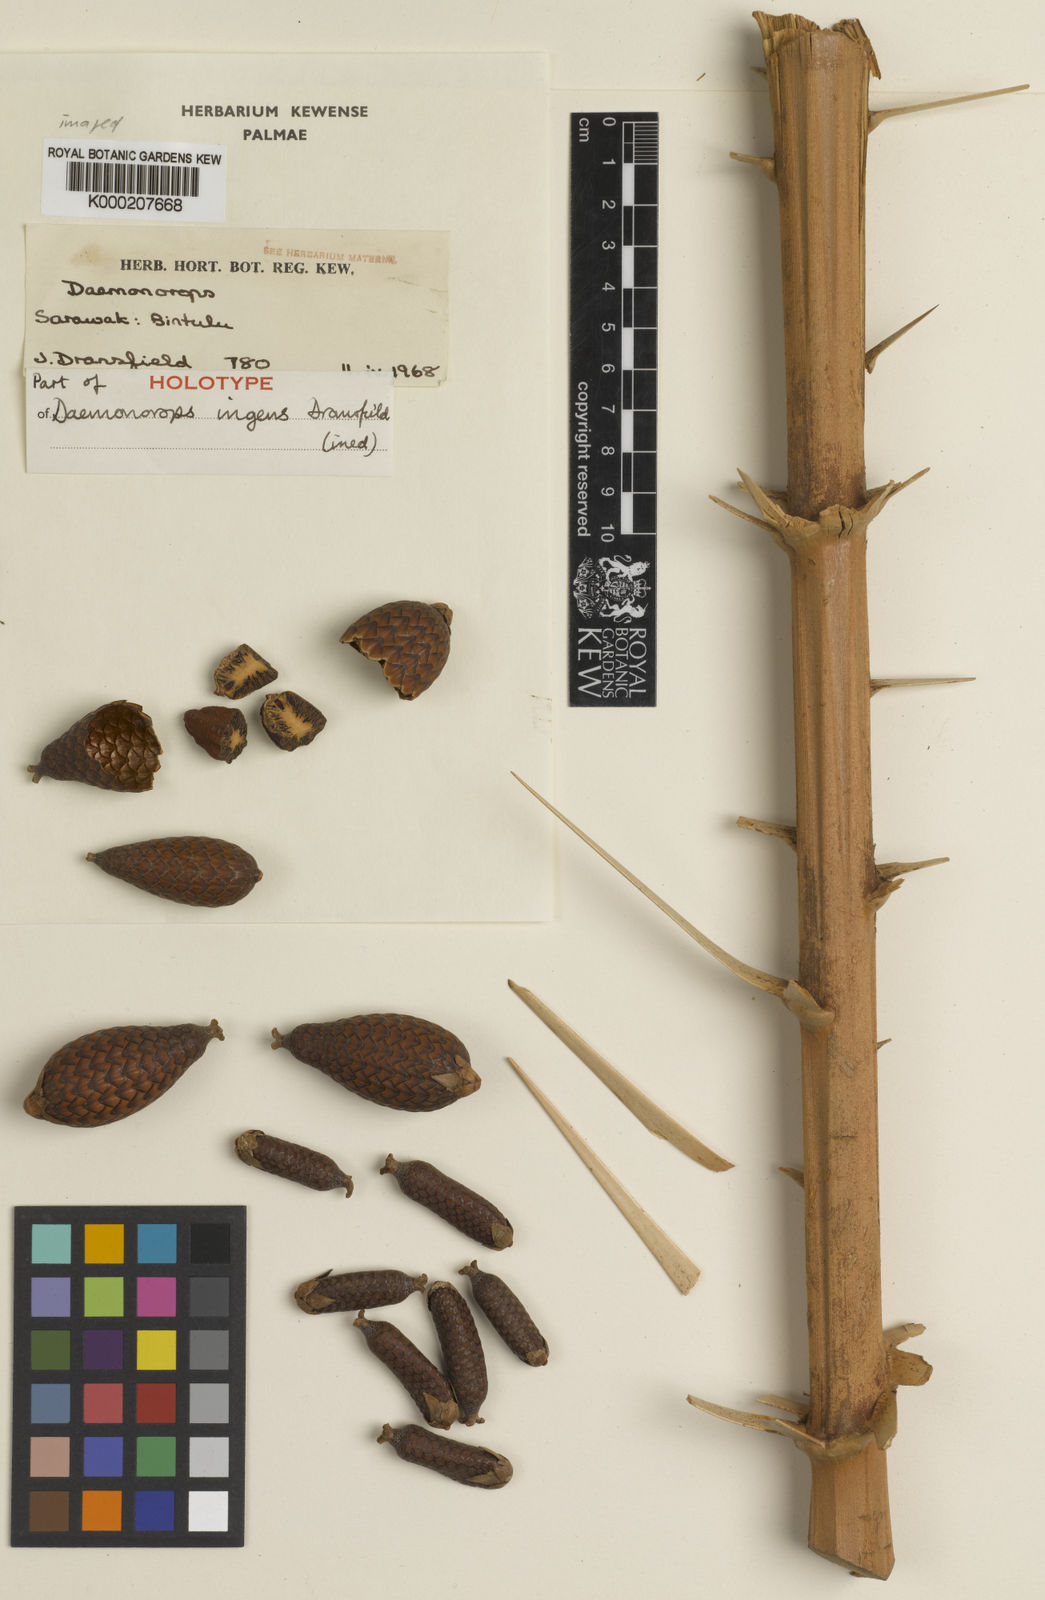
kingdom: Plantae
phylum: Tracheophyta
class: Liliopsida
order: Arecales
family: Arecaceae
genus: Calamus
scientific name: Calamus ingens
